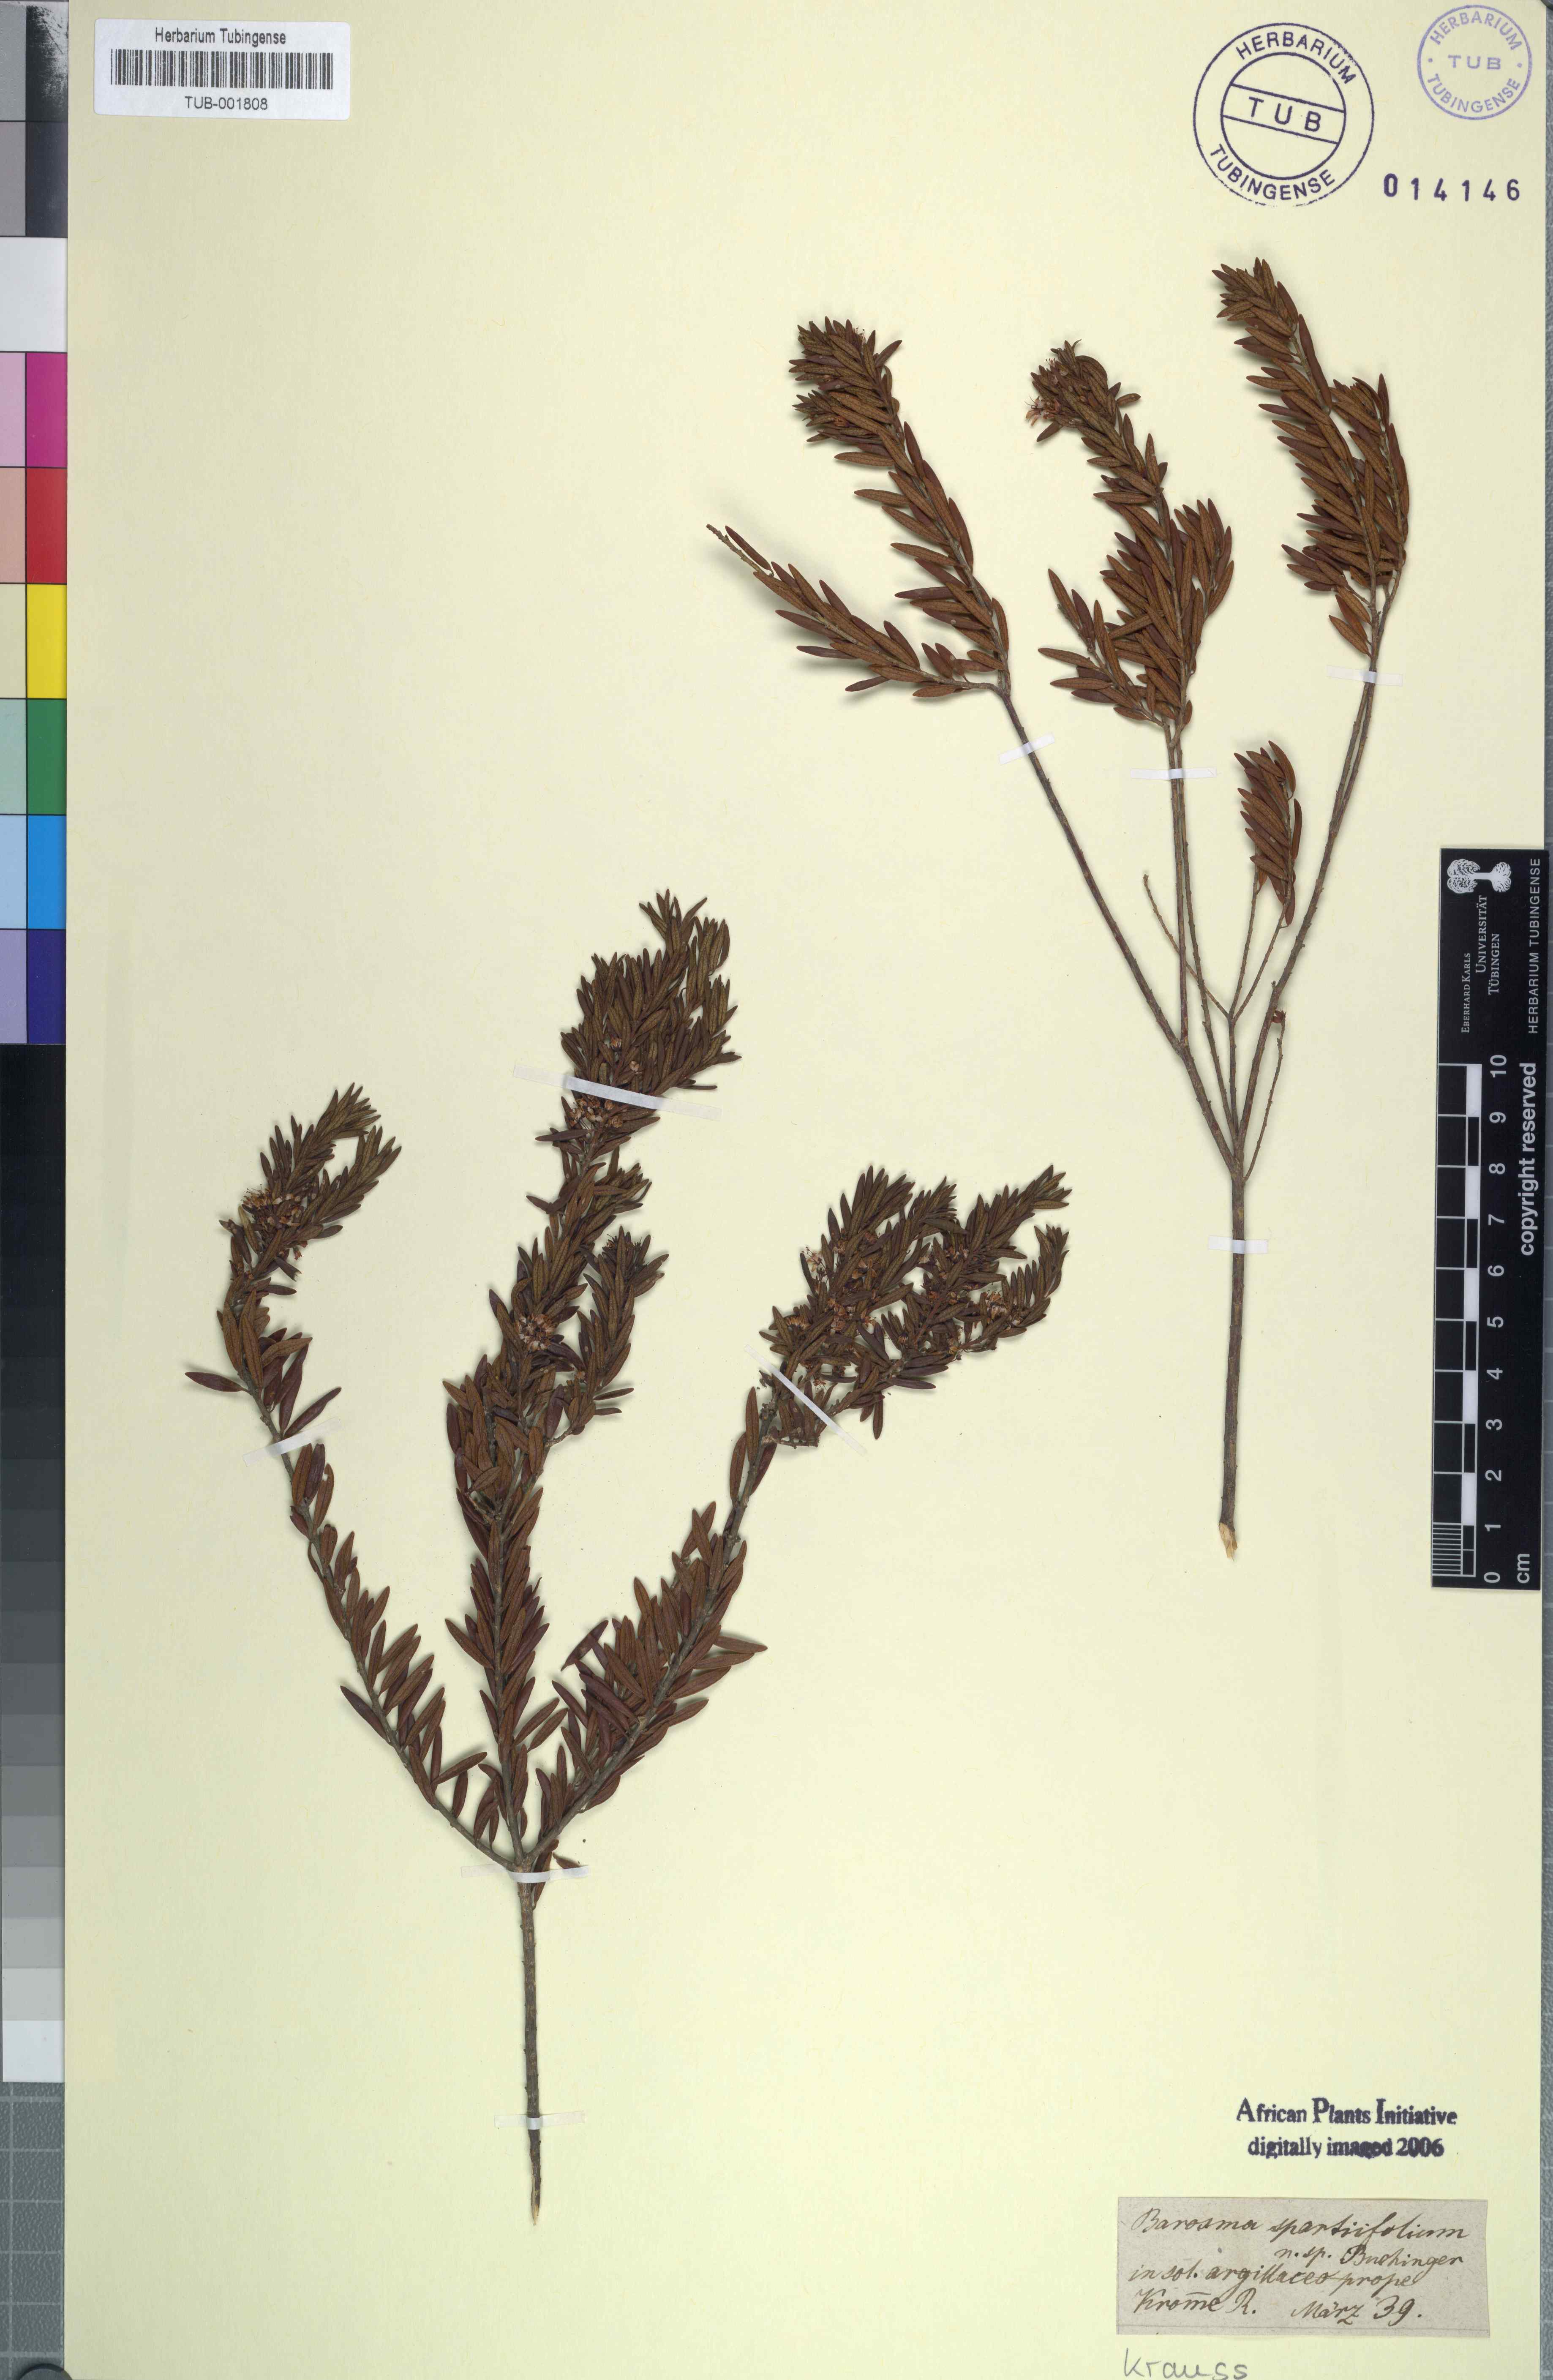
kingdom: Plantae
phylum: Tracheophyta
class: Magnoliopsida
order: Sapindales
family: Rutaceae
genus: Agathosma
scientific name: Agathosma lanceolata
